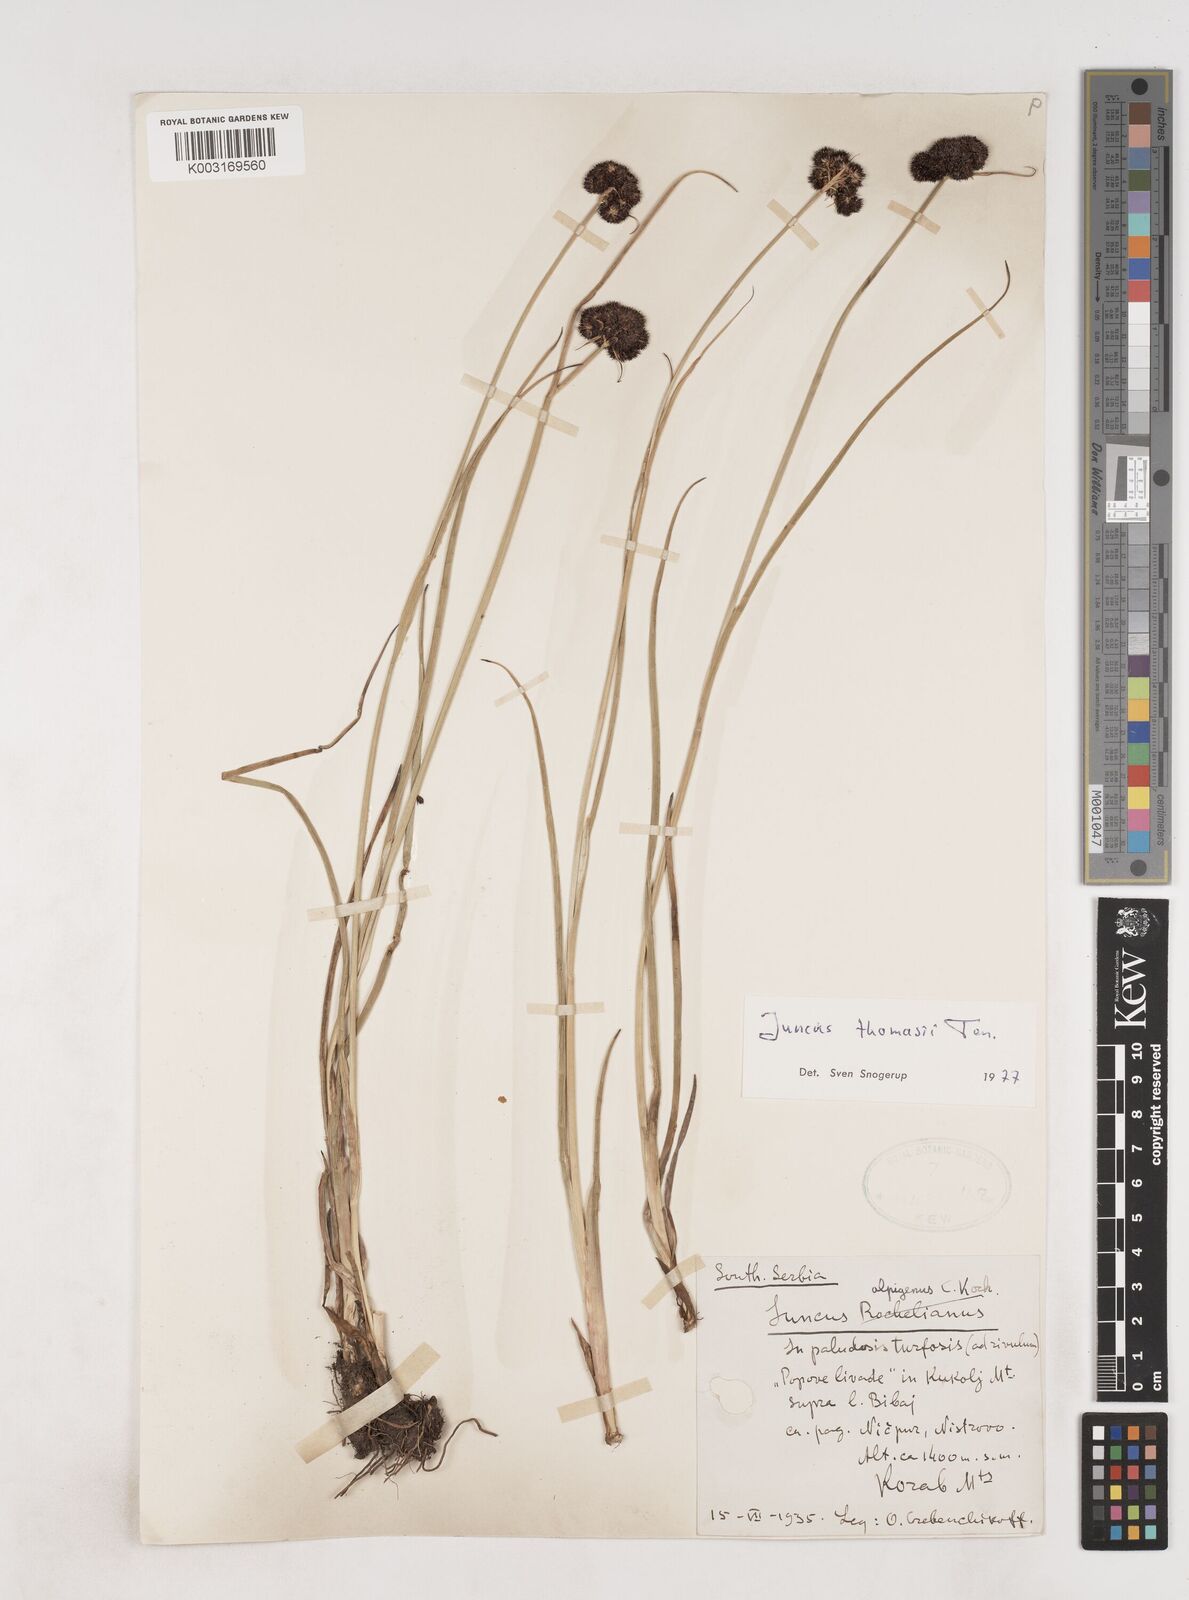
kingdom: Plantae
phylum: Tracheophyta
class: Liliopsida
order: Poales
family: Juncaceae
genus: Juncus
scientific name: Juncus thomasii
